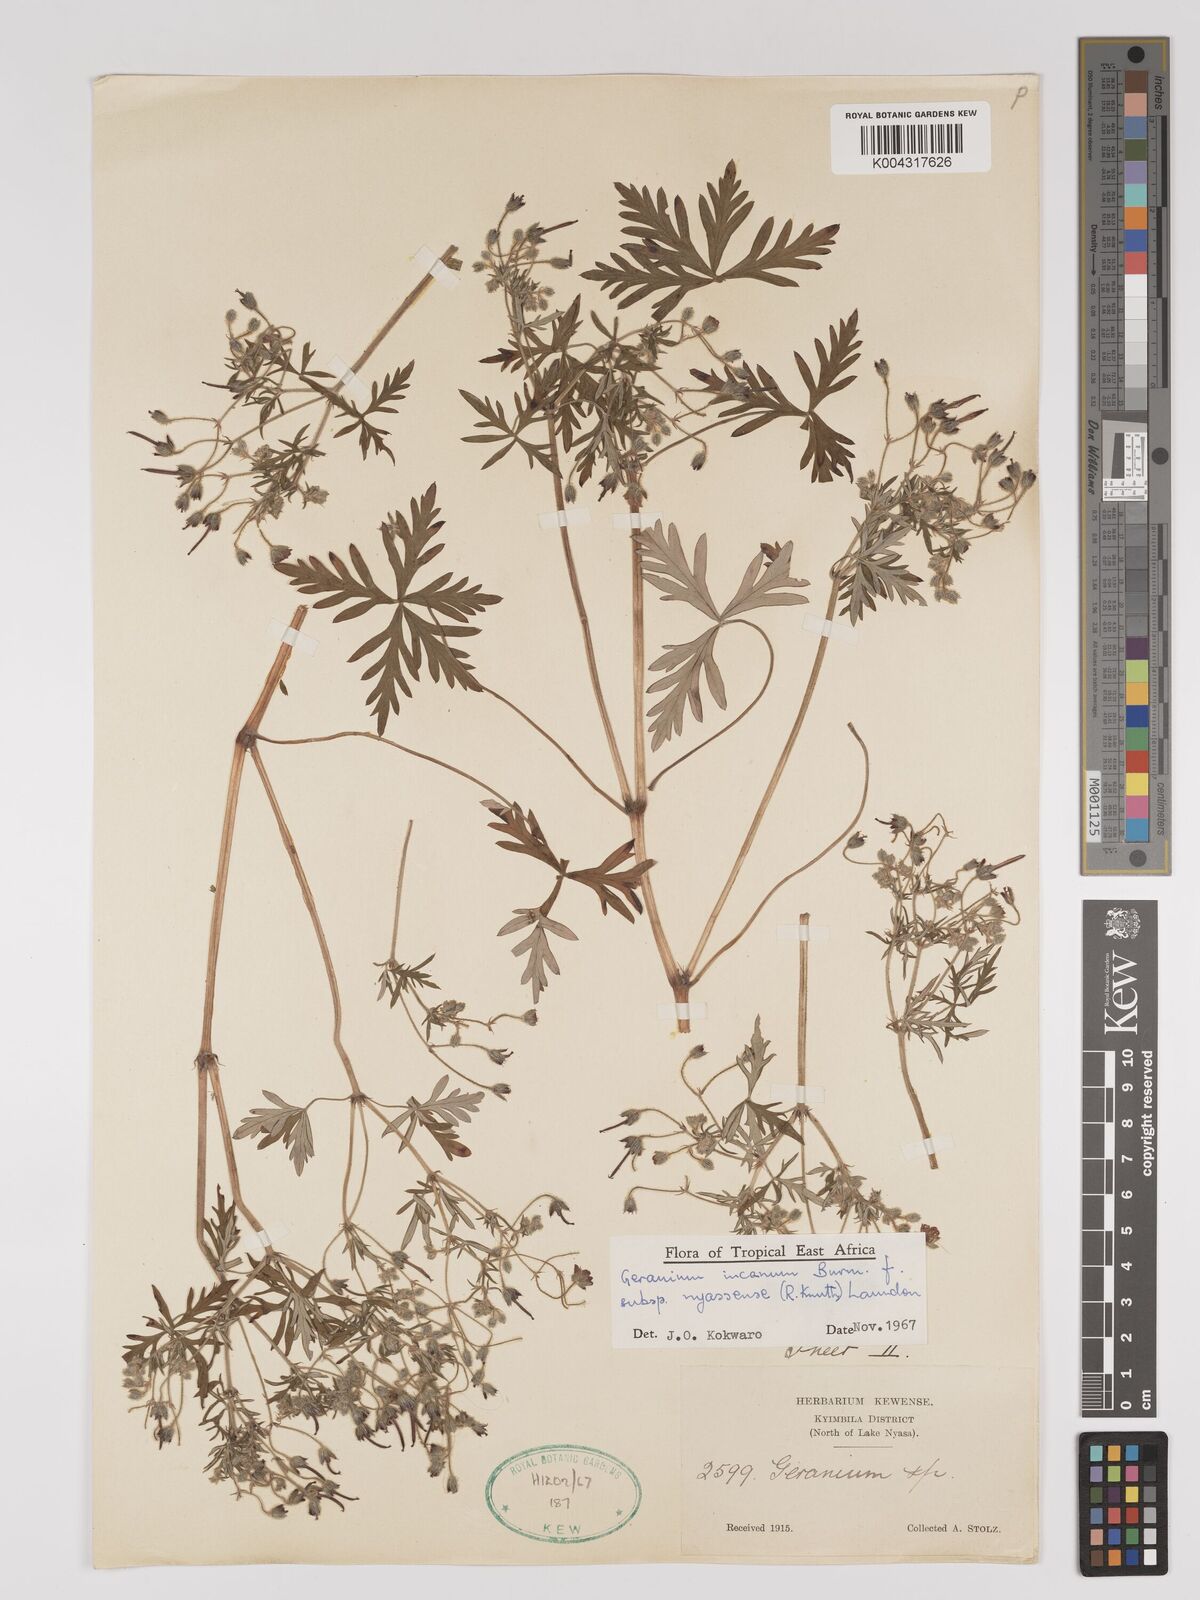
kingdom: Plantae
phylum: Tracheophyta
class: Magnoliopsida
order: Geraniales
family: Geraniaceae
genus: Geranium
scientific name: Geranium incanum
